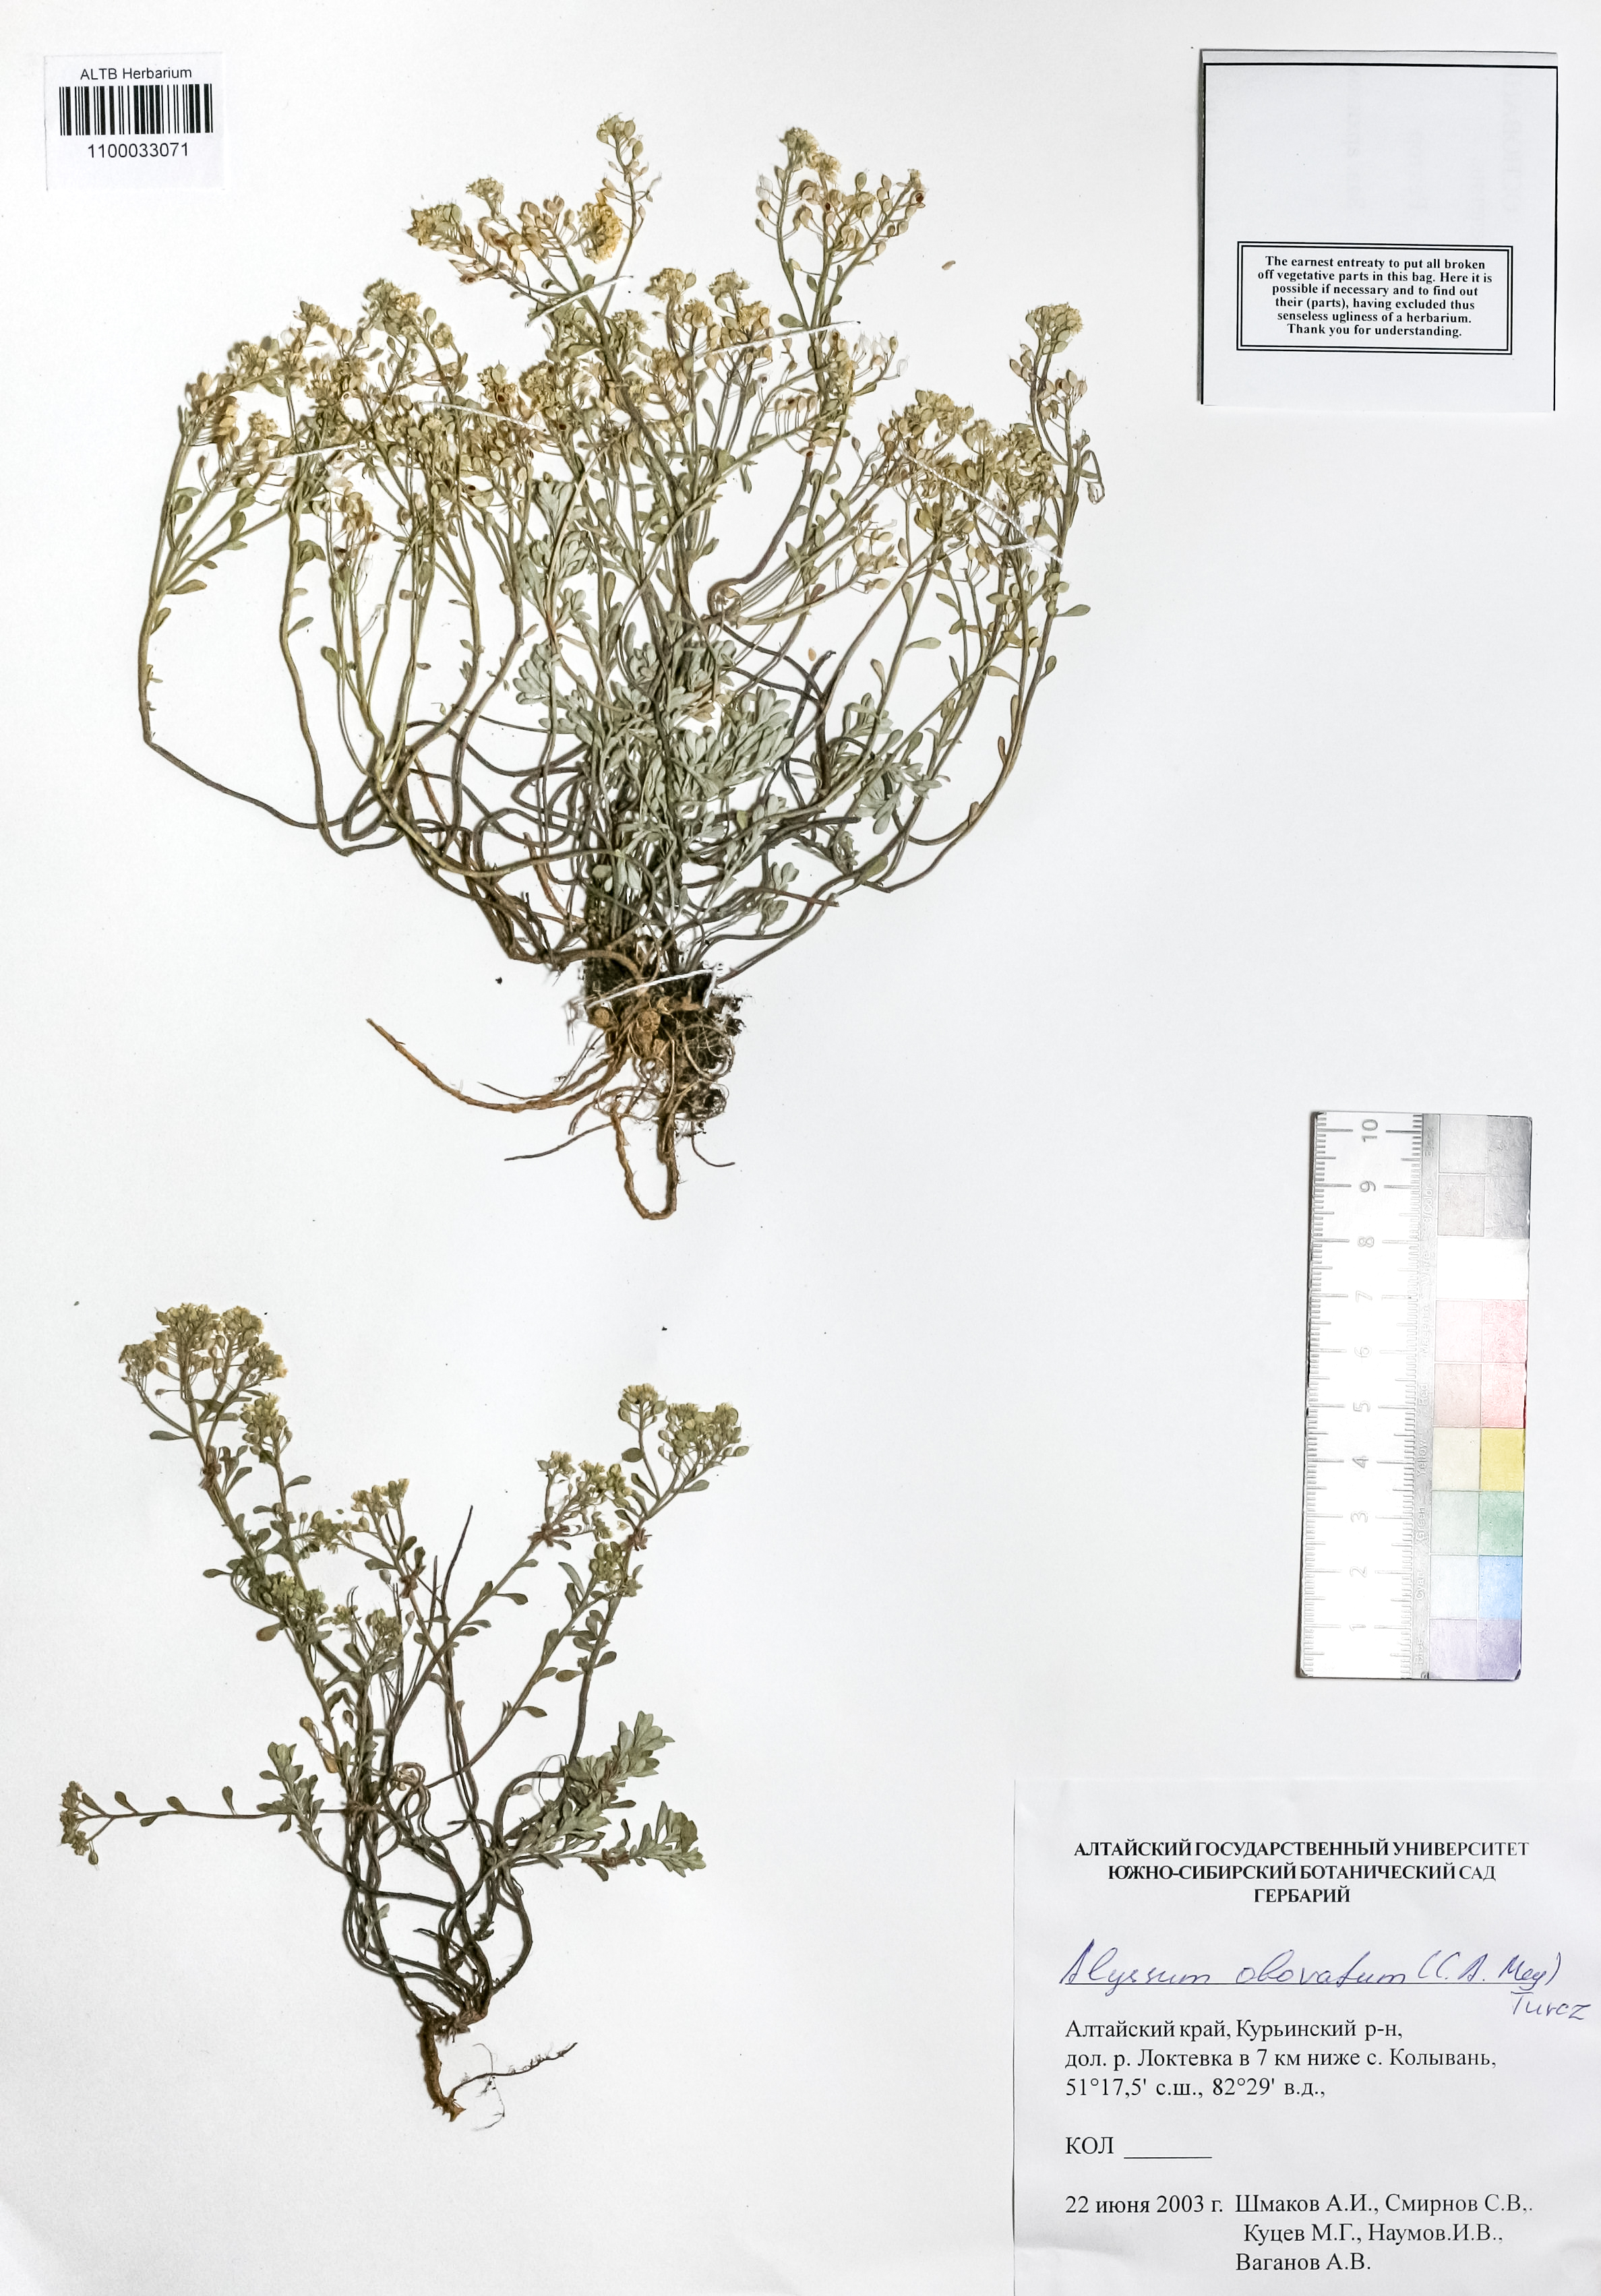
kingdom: Plantae
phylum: Tracheophyta
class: Magnoliopsida
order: Brassicales
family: Brassicaceae
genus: Odontarrhena
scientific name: Odontarrhena obovata
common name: American alyssum
